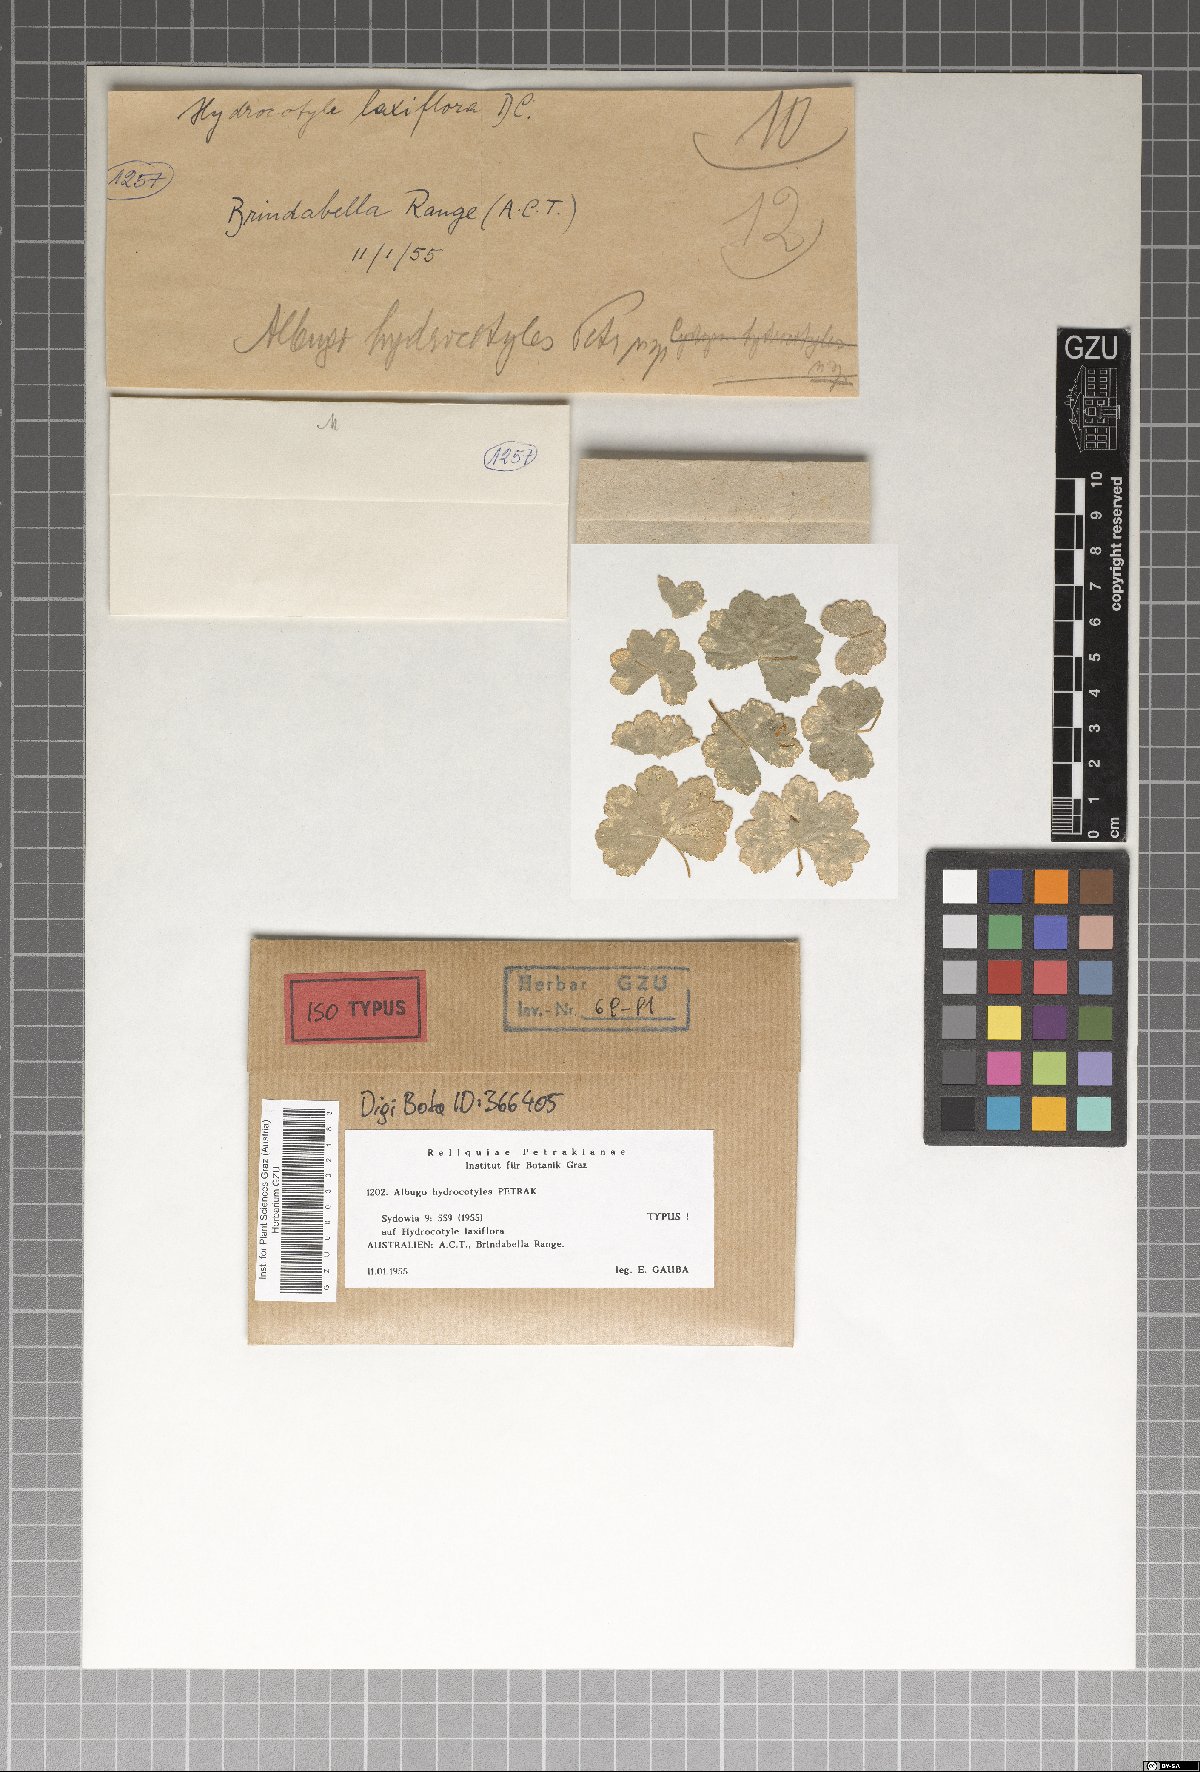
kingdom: Chromista
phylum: Oomycota
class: Peronosporea
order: Albuginales
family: Albuginaceae
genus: Pustula
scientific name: Pustula hydrocotyles
